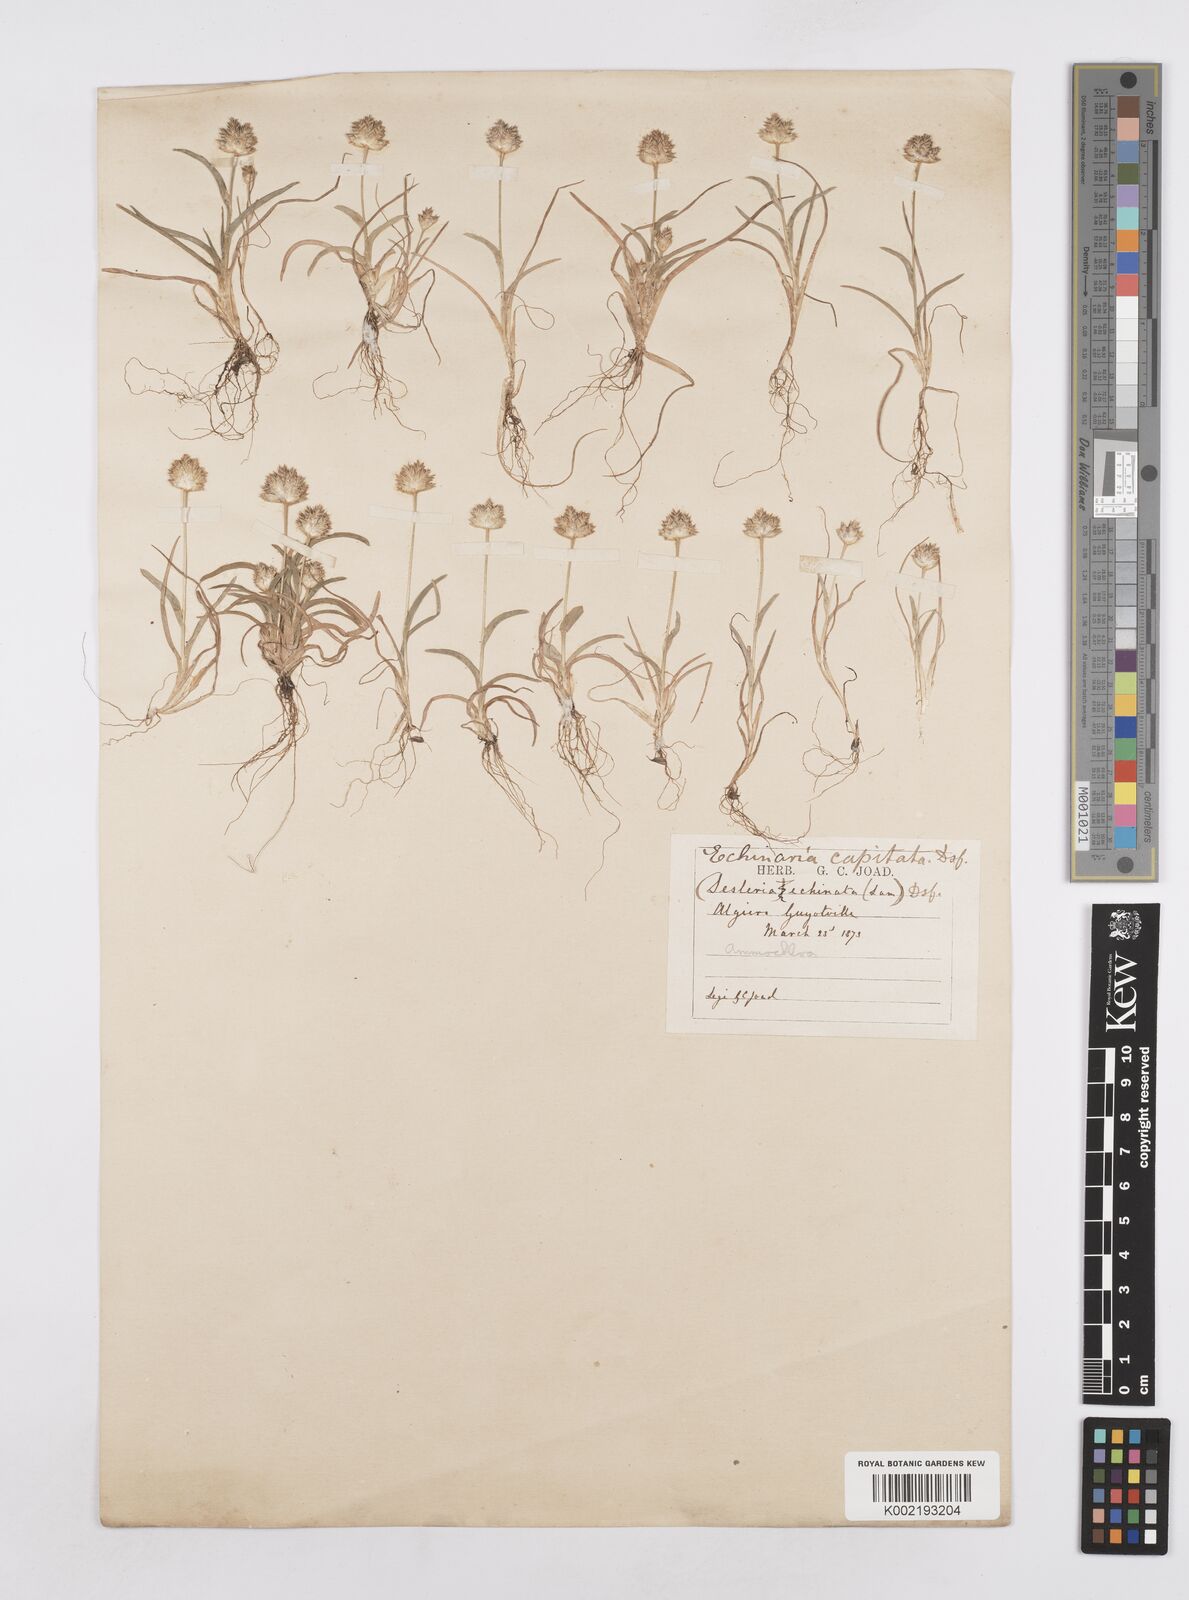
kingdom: Plantae
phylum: Tracheophyta
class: Liliopsida
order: Poales
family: Poaceae
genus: Ammochloa
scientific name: Ammochloa pungens
